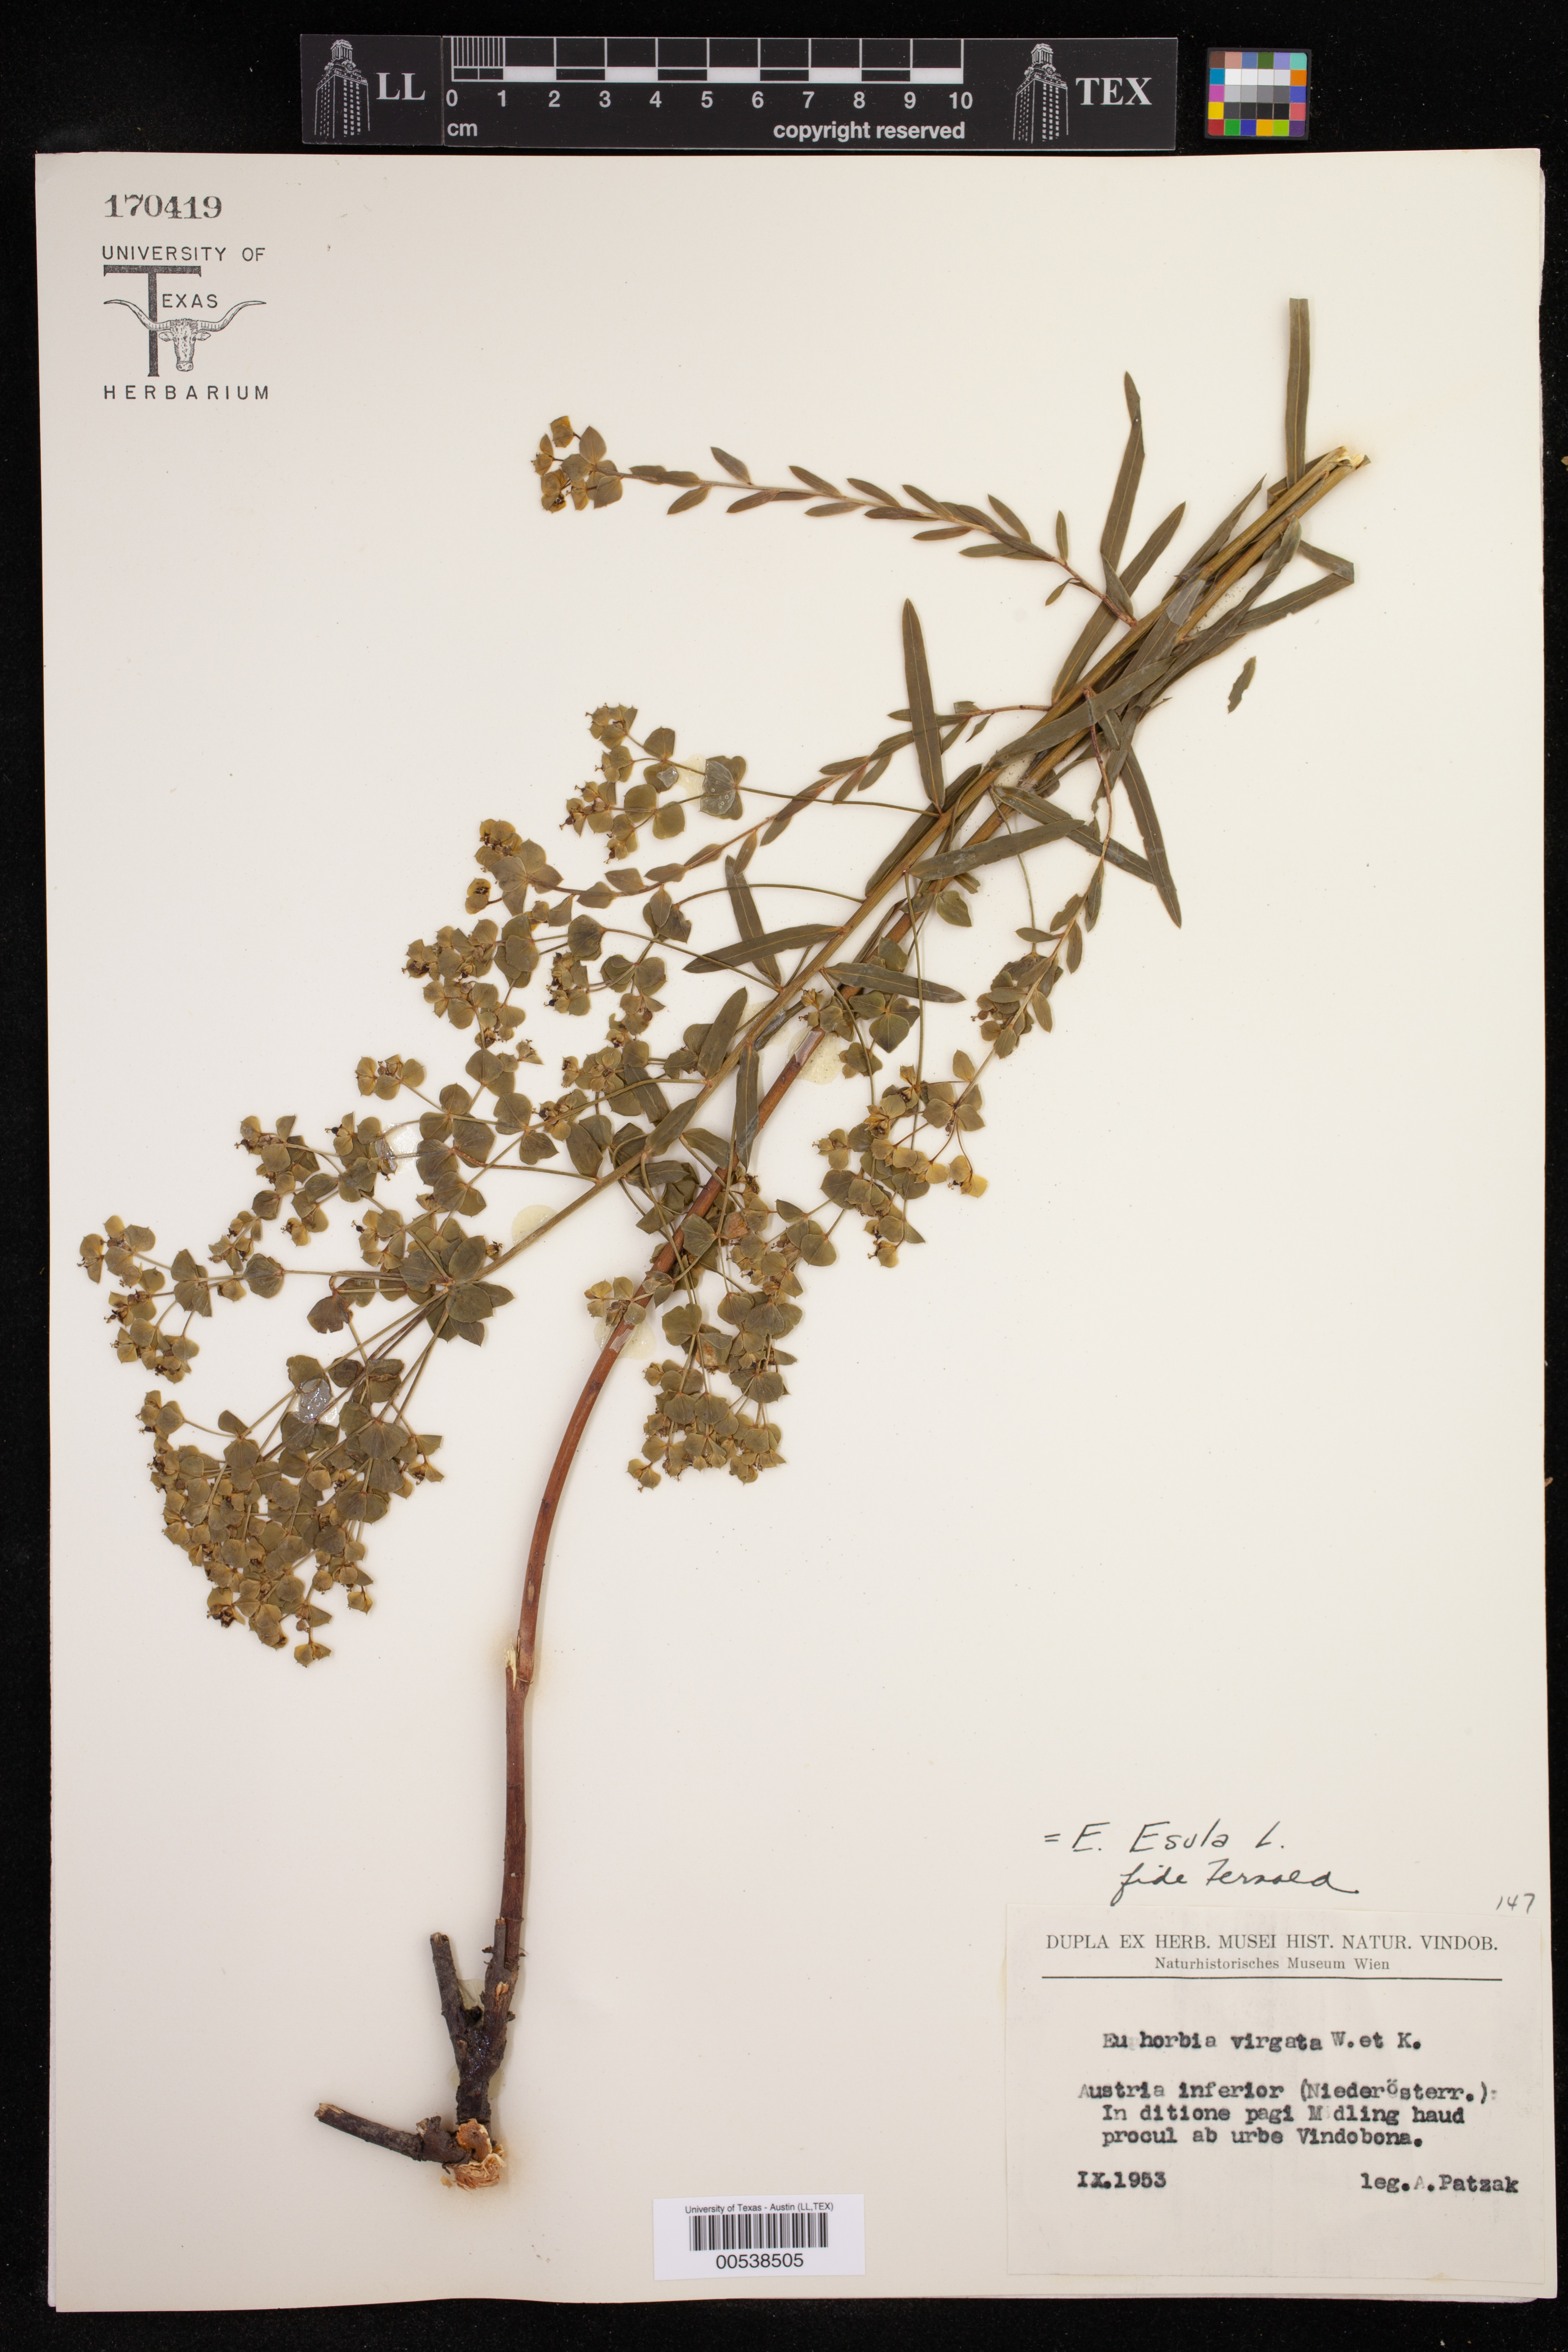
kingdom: Plantae
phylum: Tracheophyta
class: Magnoliopsida
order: Malpighiales
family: Euphorbiaceae
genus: Euphorbia
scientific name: Euphorbia esula
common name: Leafy spurge
